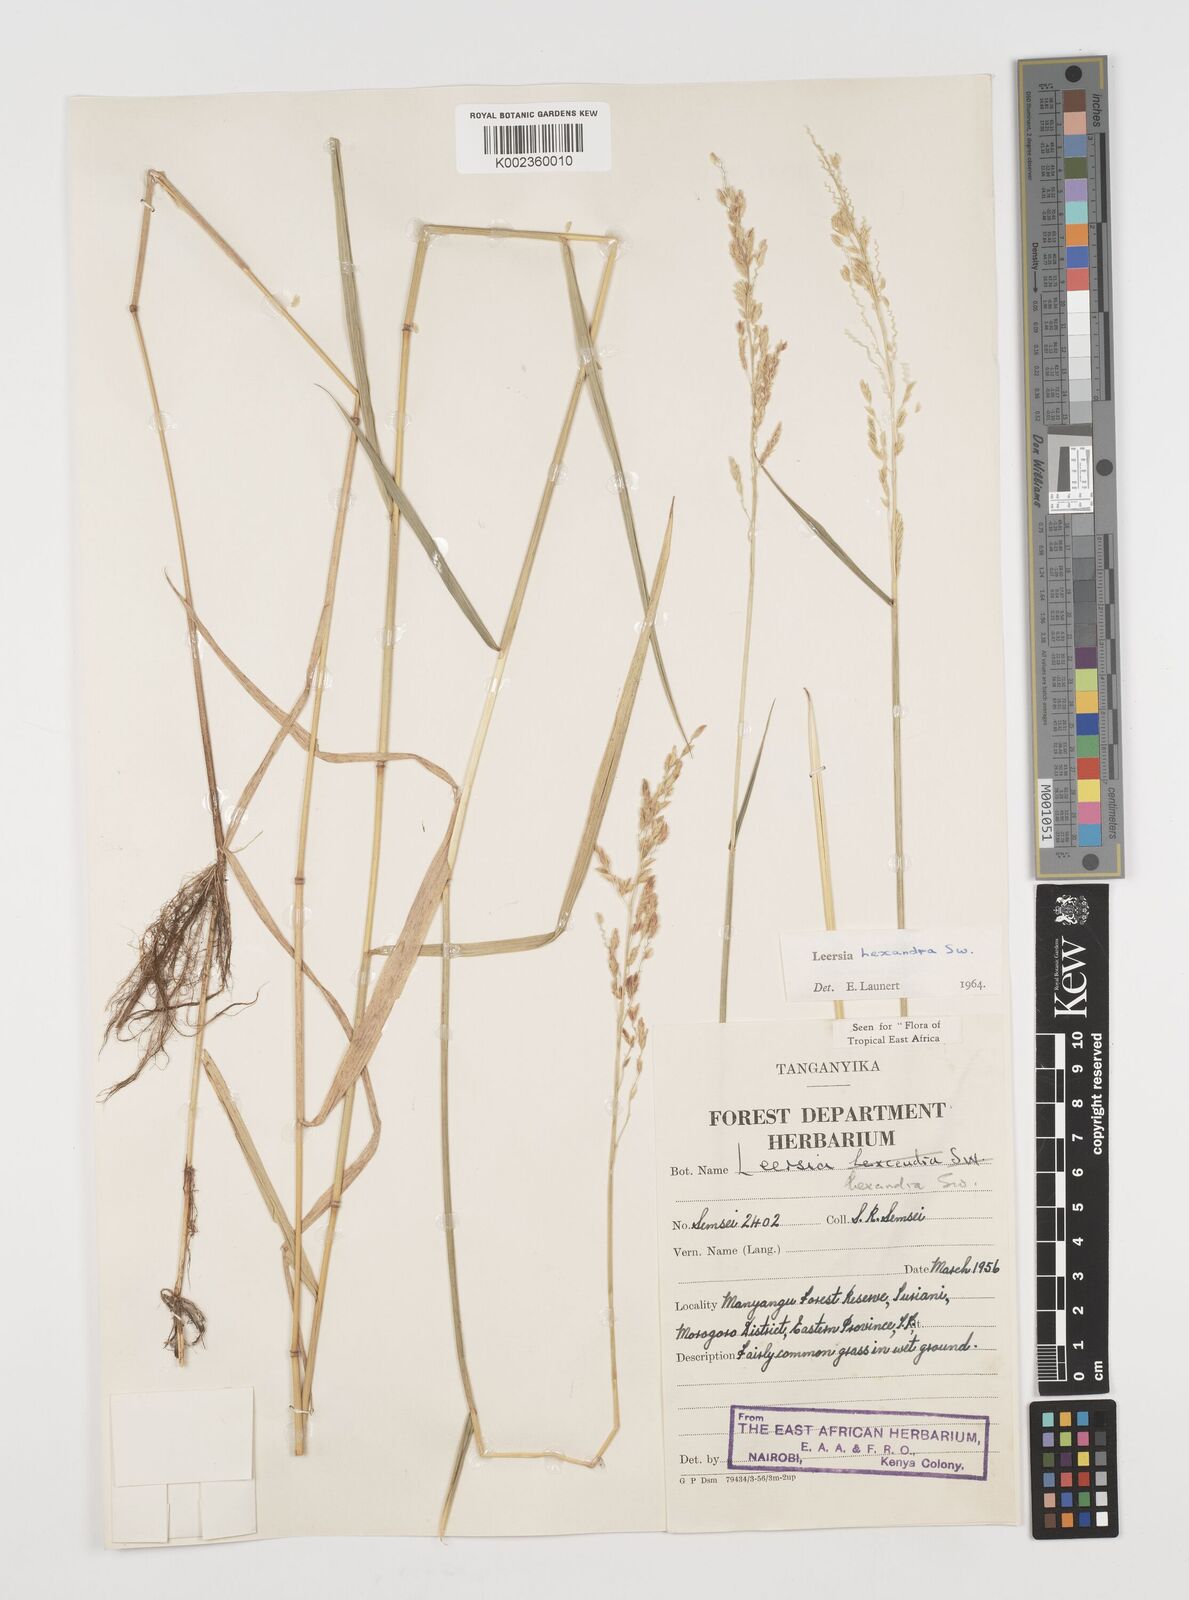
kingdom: Plantae
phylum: Tracheophyta
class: Liliopsida
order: Poales
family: Poaceae
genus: Leersia
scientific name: Leersia hexandra
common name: Southern cut grass
